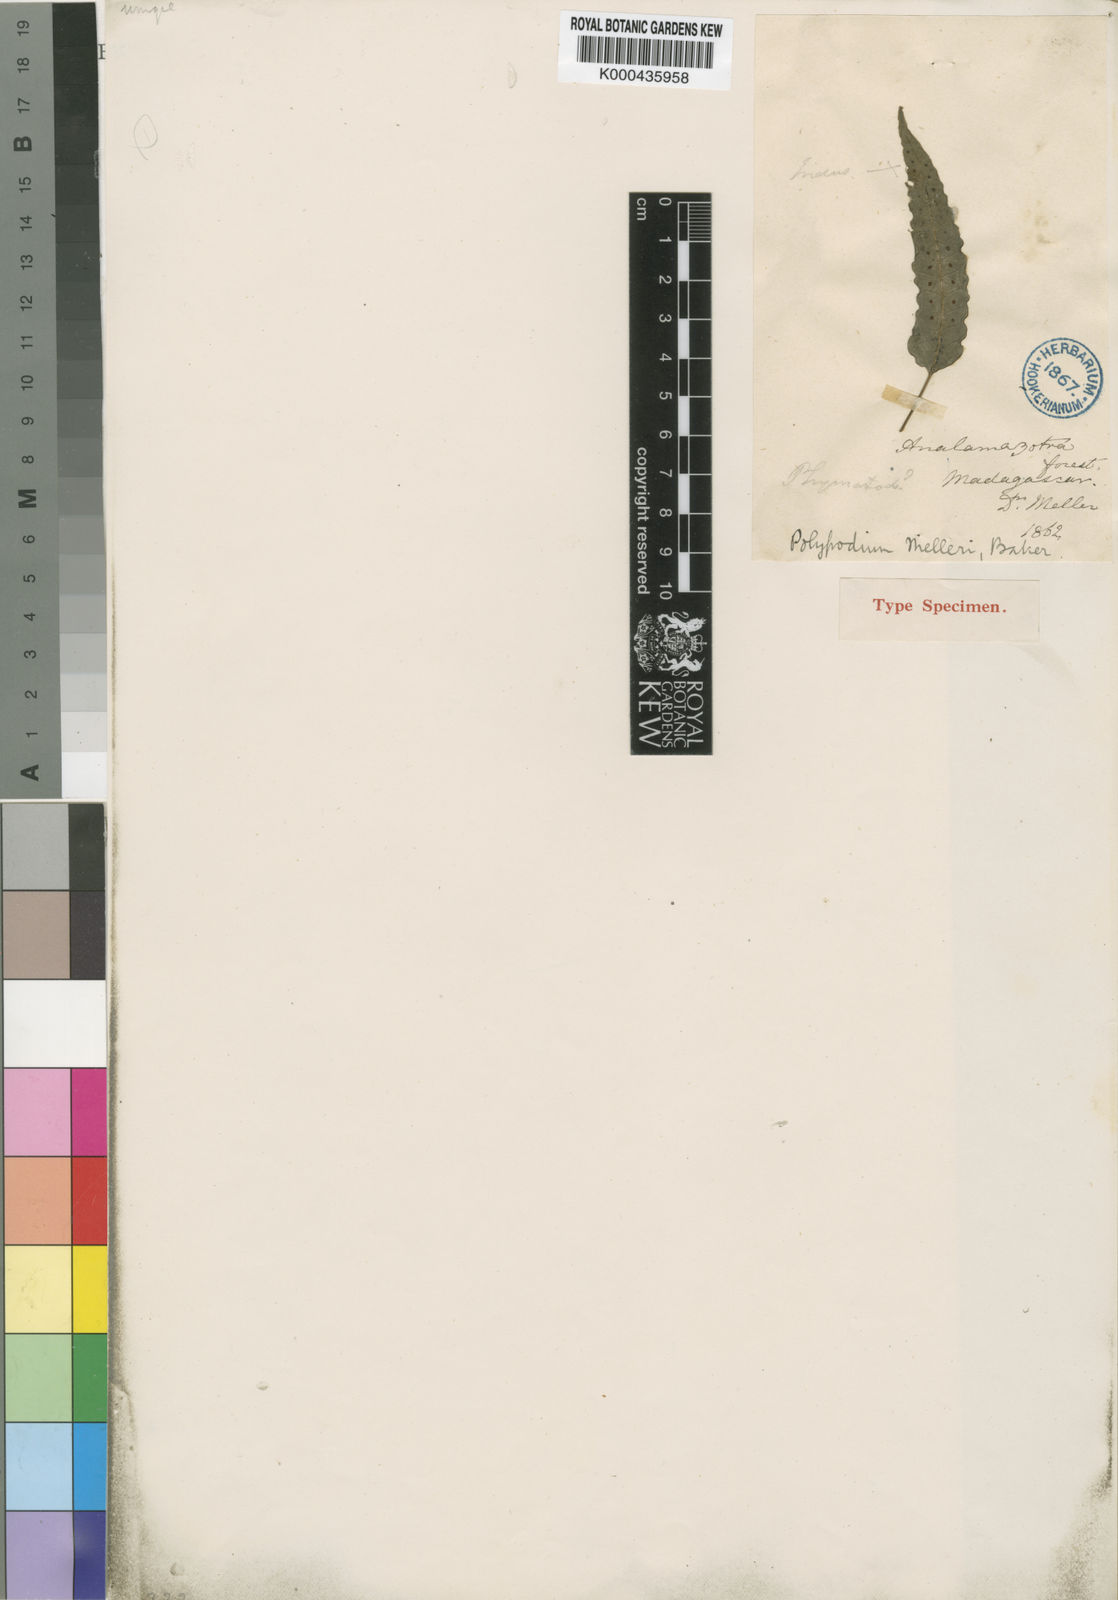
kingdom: Plantae
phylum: Tracheophyta
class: Polypodiopsida
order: Polypodiales
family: Polypodiaceae
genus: Selliguea
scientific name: Selliguea
